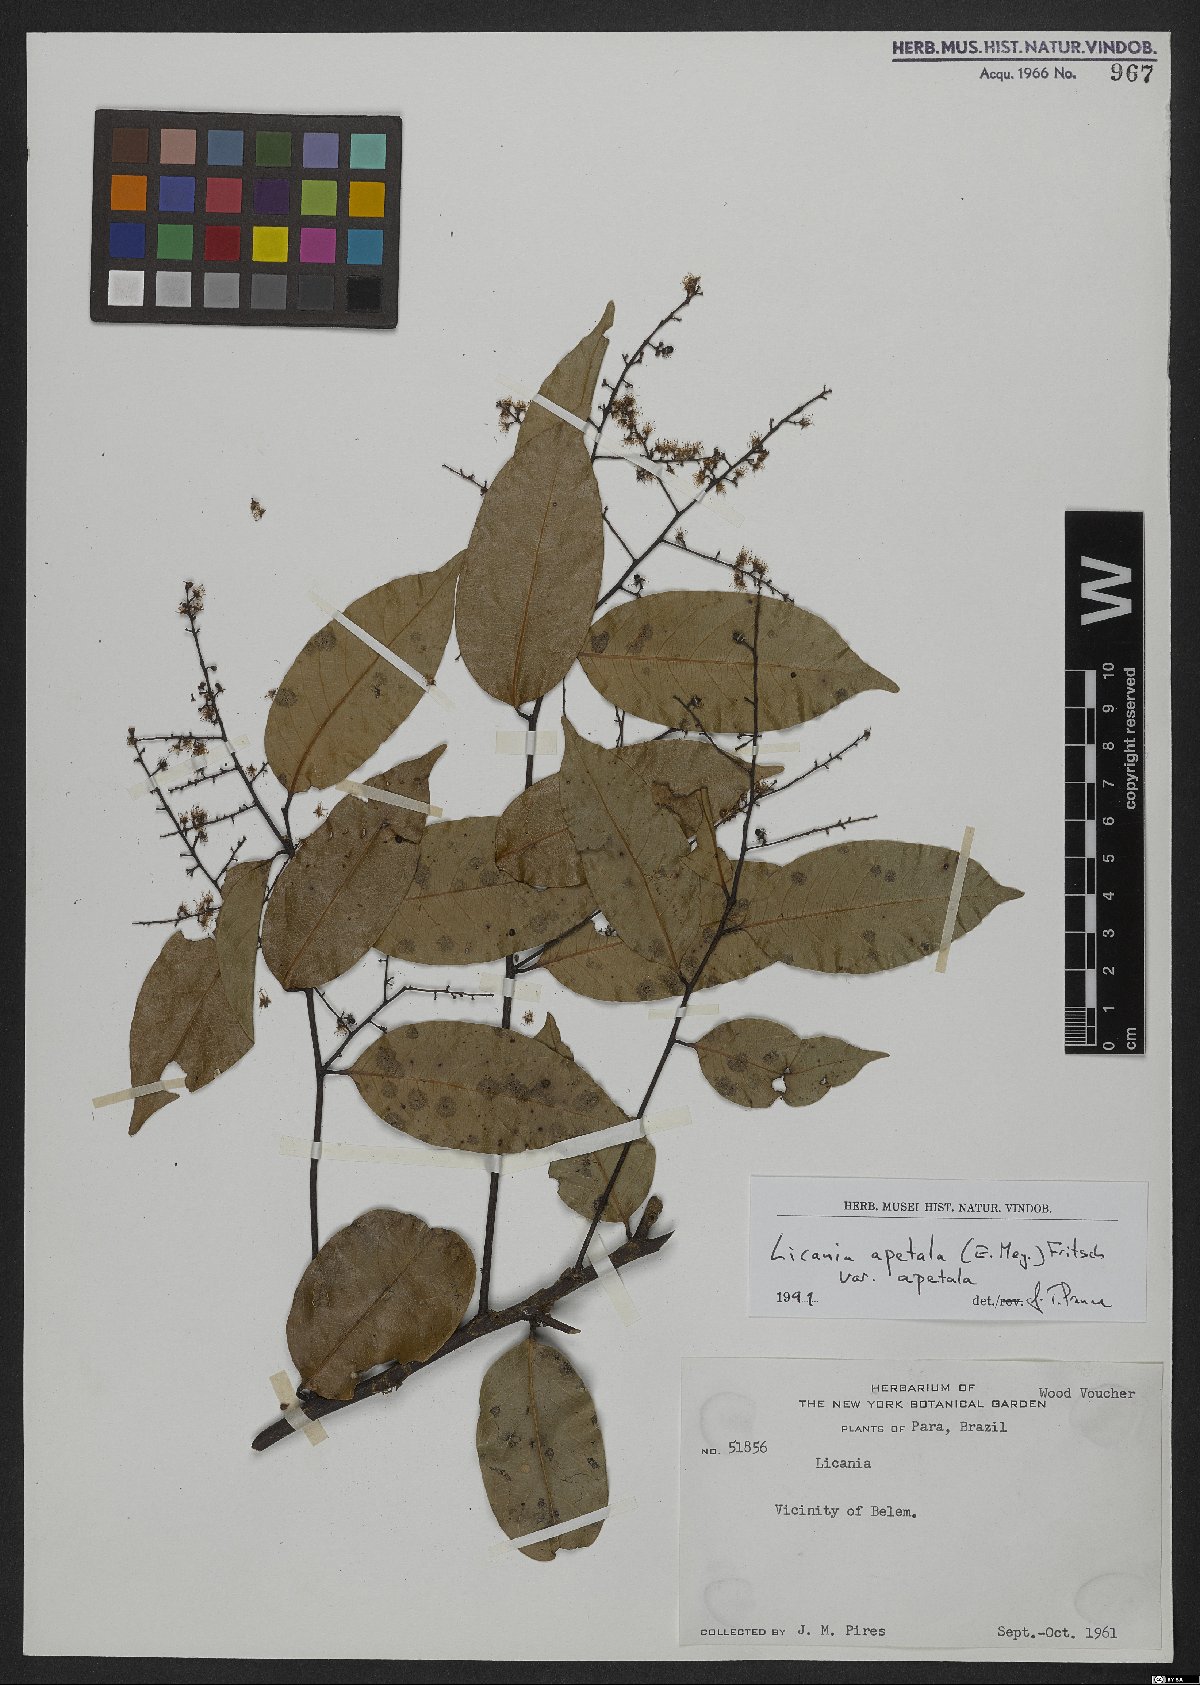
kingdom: Plantae
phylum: Tracheophyta
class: Magnoliopsida
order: Malpighiales
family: Chrysobalanaceae
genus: Leptobalanus
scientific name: Leptobalanus apetalus
